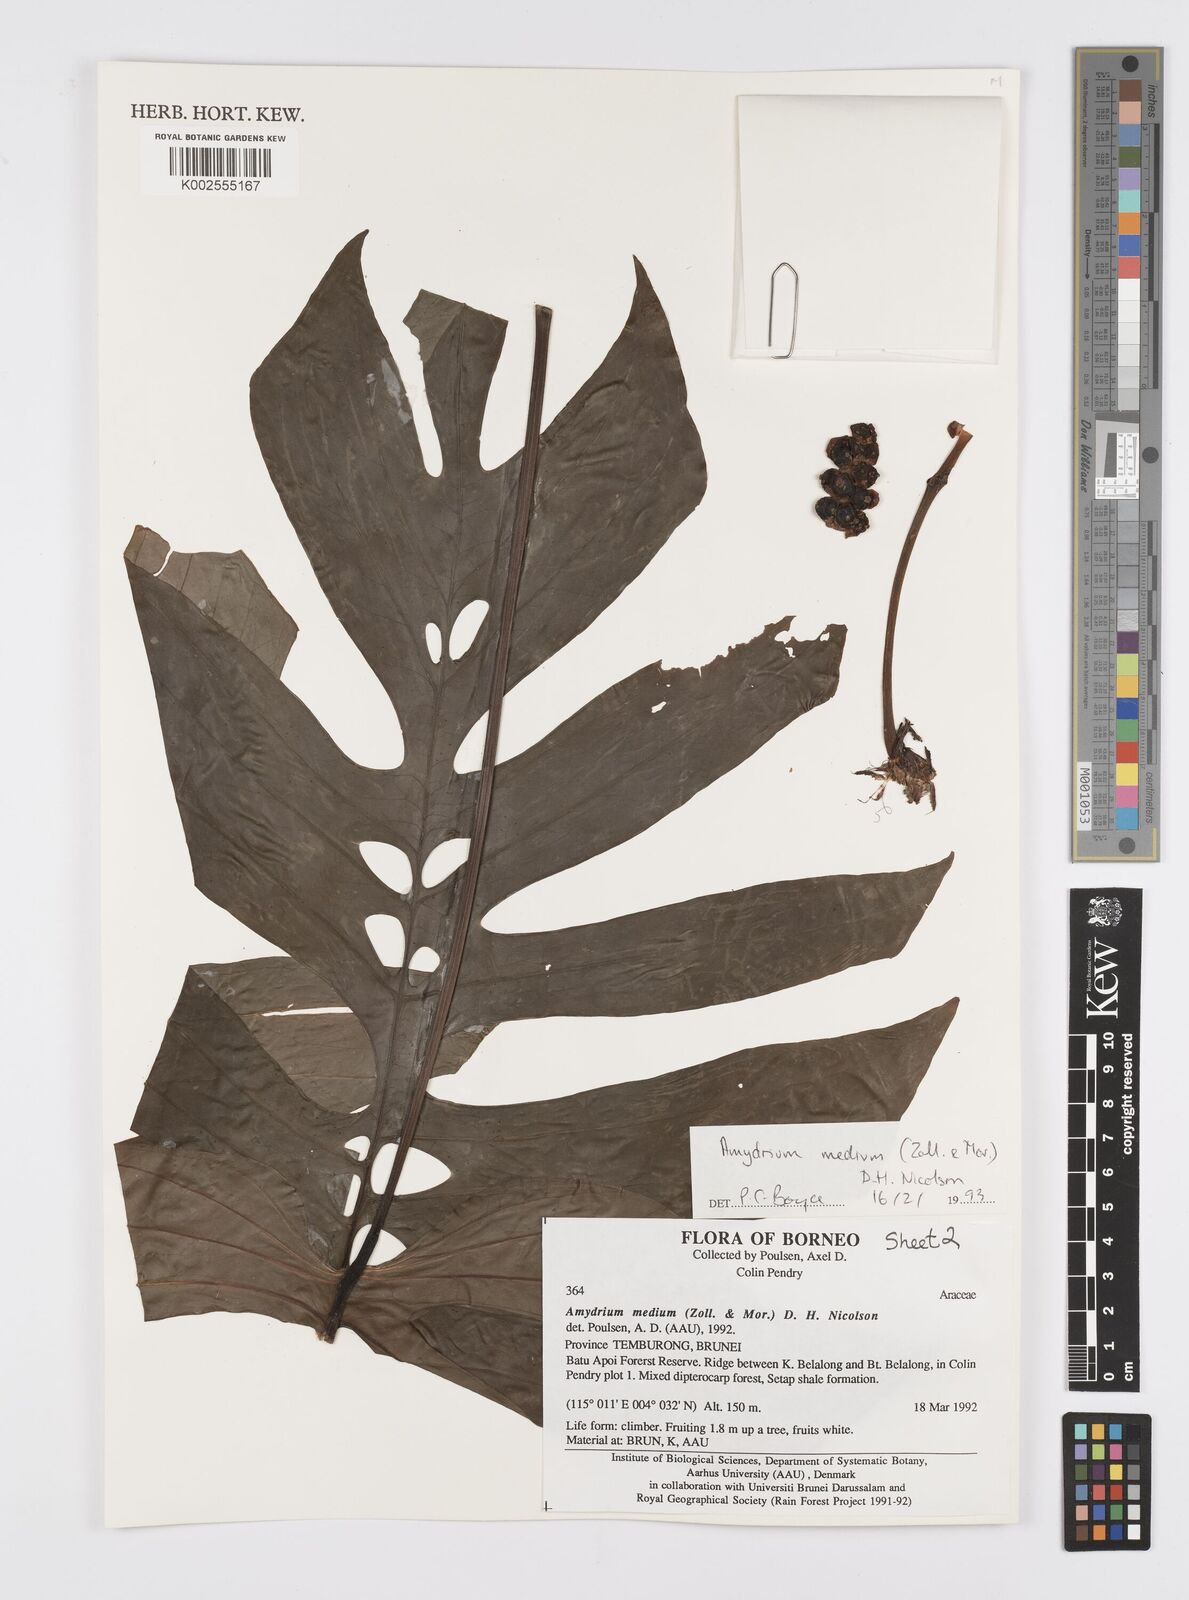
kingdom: Plantae
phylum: Tracheophyta
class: Liliopsida
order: Alismatales
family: Araceae
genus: Amydrium
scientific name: Amydrium medium
